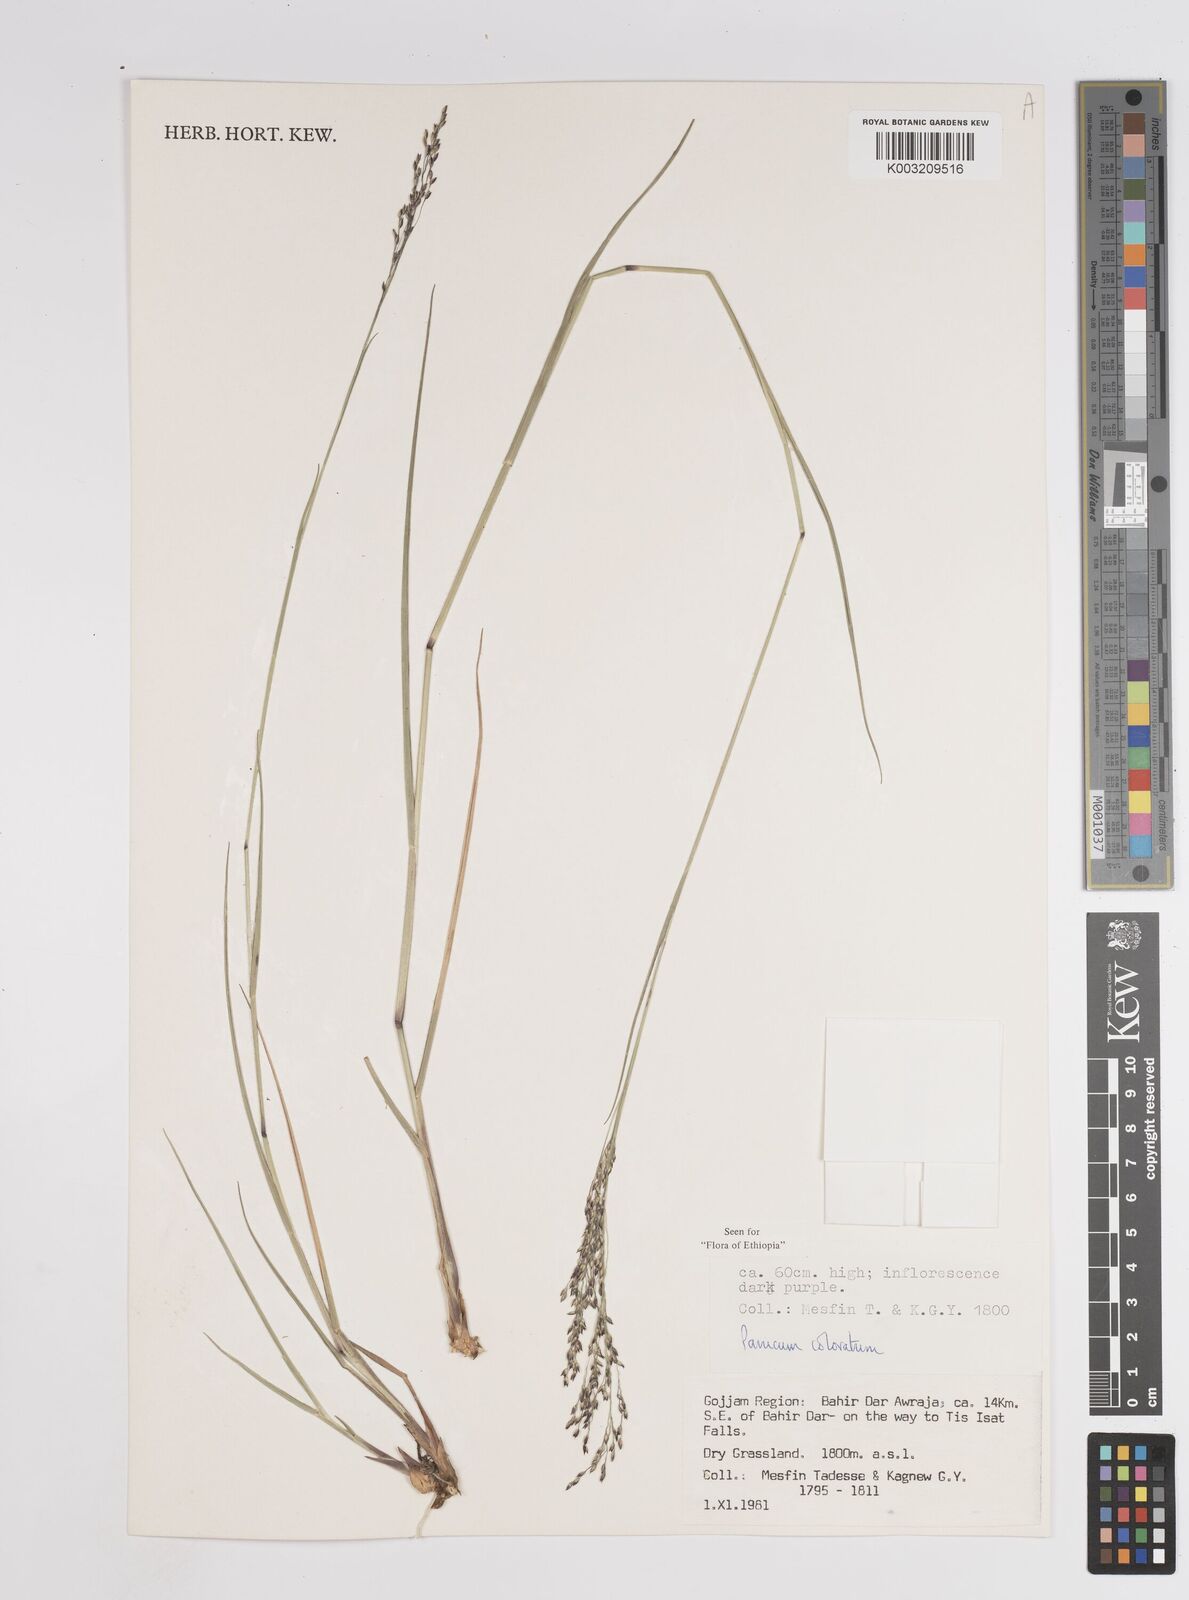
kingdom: Plantae
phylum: Tracheophyta
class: Liliopsida
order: Poales
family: Poaceae
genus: Panicum
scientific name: Panicum coloratum
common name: Kleingrass
